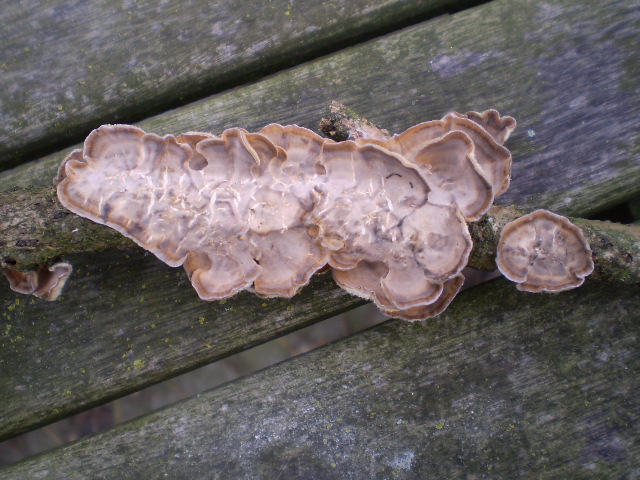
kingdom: Fungi
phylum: Basidiomycota
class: Agaricomycetes
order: Russulales
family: Stereaceae
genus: Stereum
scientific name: Stereum hirsutum
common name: håret lædersvamp
